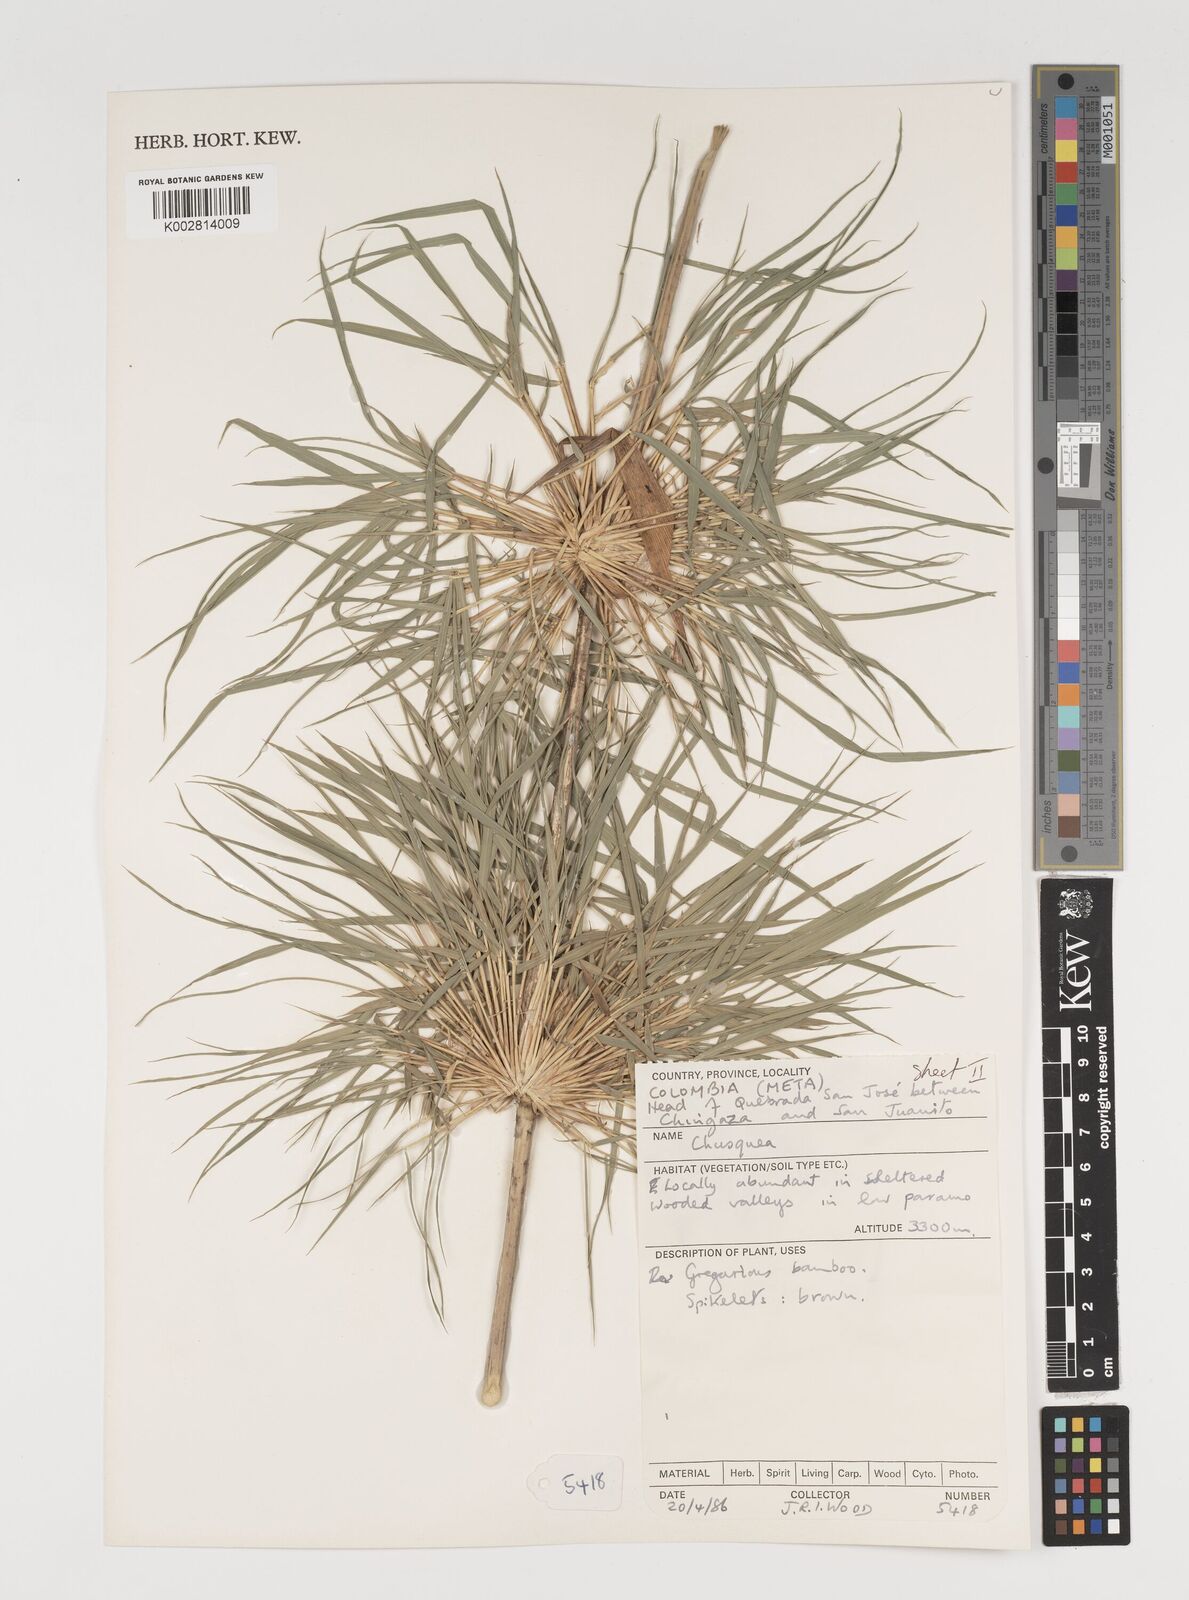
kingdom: Plantae
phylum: Tracheophyta
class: Liliopsida
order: Poales
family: Poaceae
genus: Chusquea
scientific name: Chusquea
